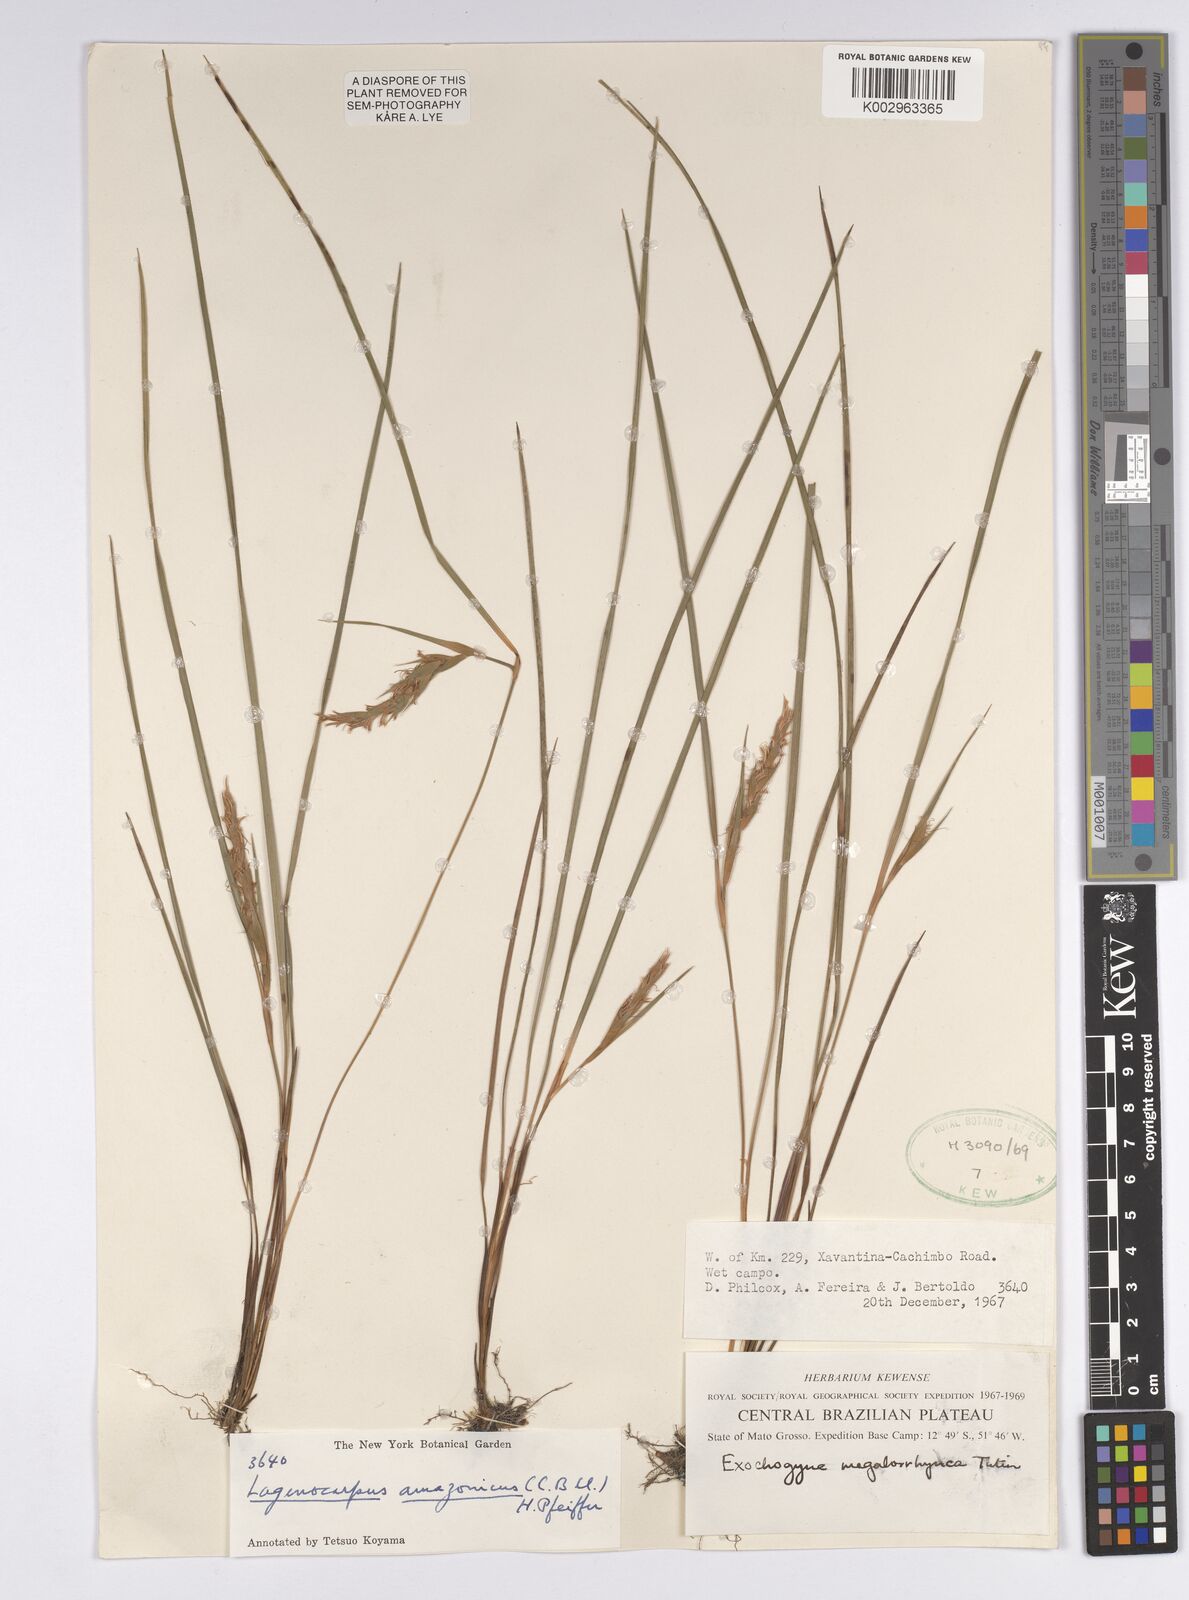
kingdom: Plantae
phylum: Tracheophyta
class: Liliopsida
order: Poales
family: Cyperaceae
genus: Exochogyne
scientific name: Exochogyne amazonica
